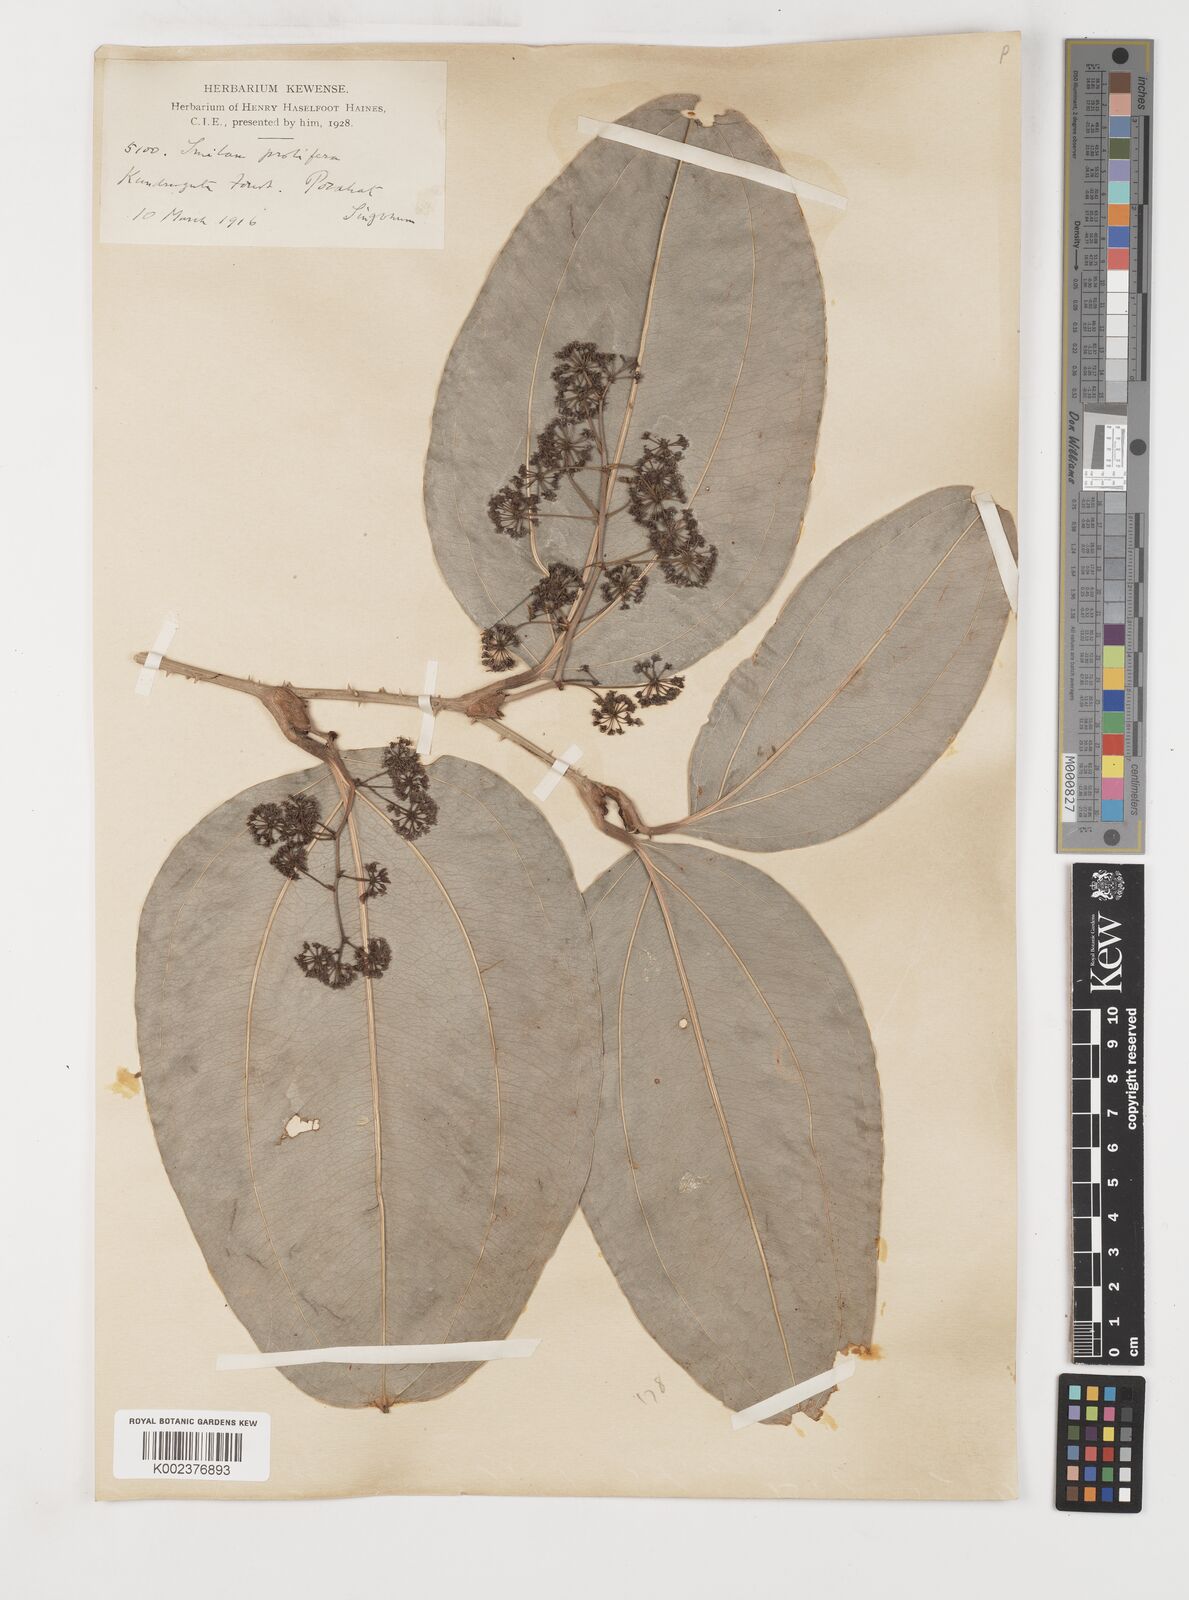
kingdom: Plantae
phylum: Tracheophyta
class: Liliopsida
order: Liliales
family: Smilacaceae
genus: Smilax
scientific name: Smilax prolifera
